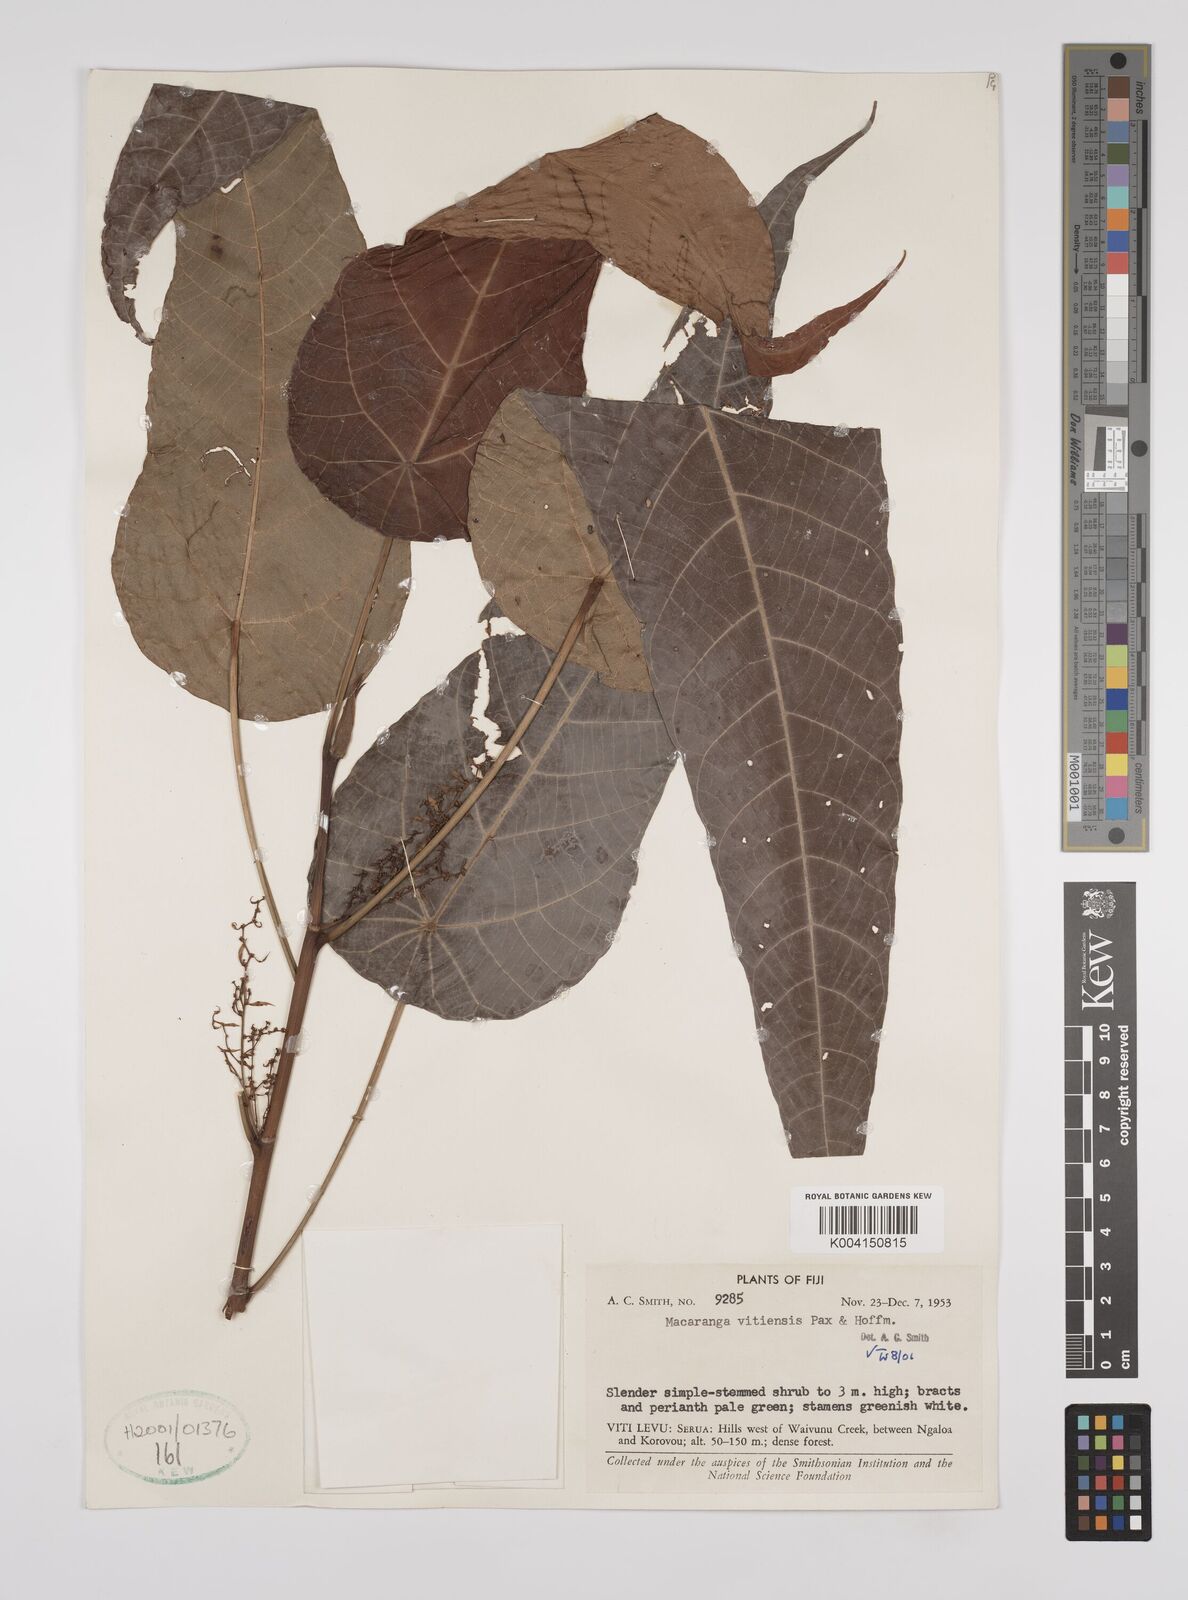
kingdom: Plantae
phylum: Tracheophyta
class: Magnoliopsida
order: Malpighiales
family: Euphorbiaceae
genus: Macaranga
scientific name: Macaranga vitiensis
